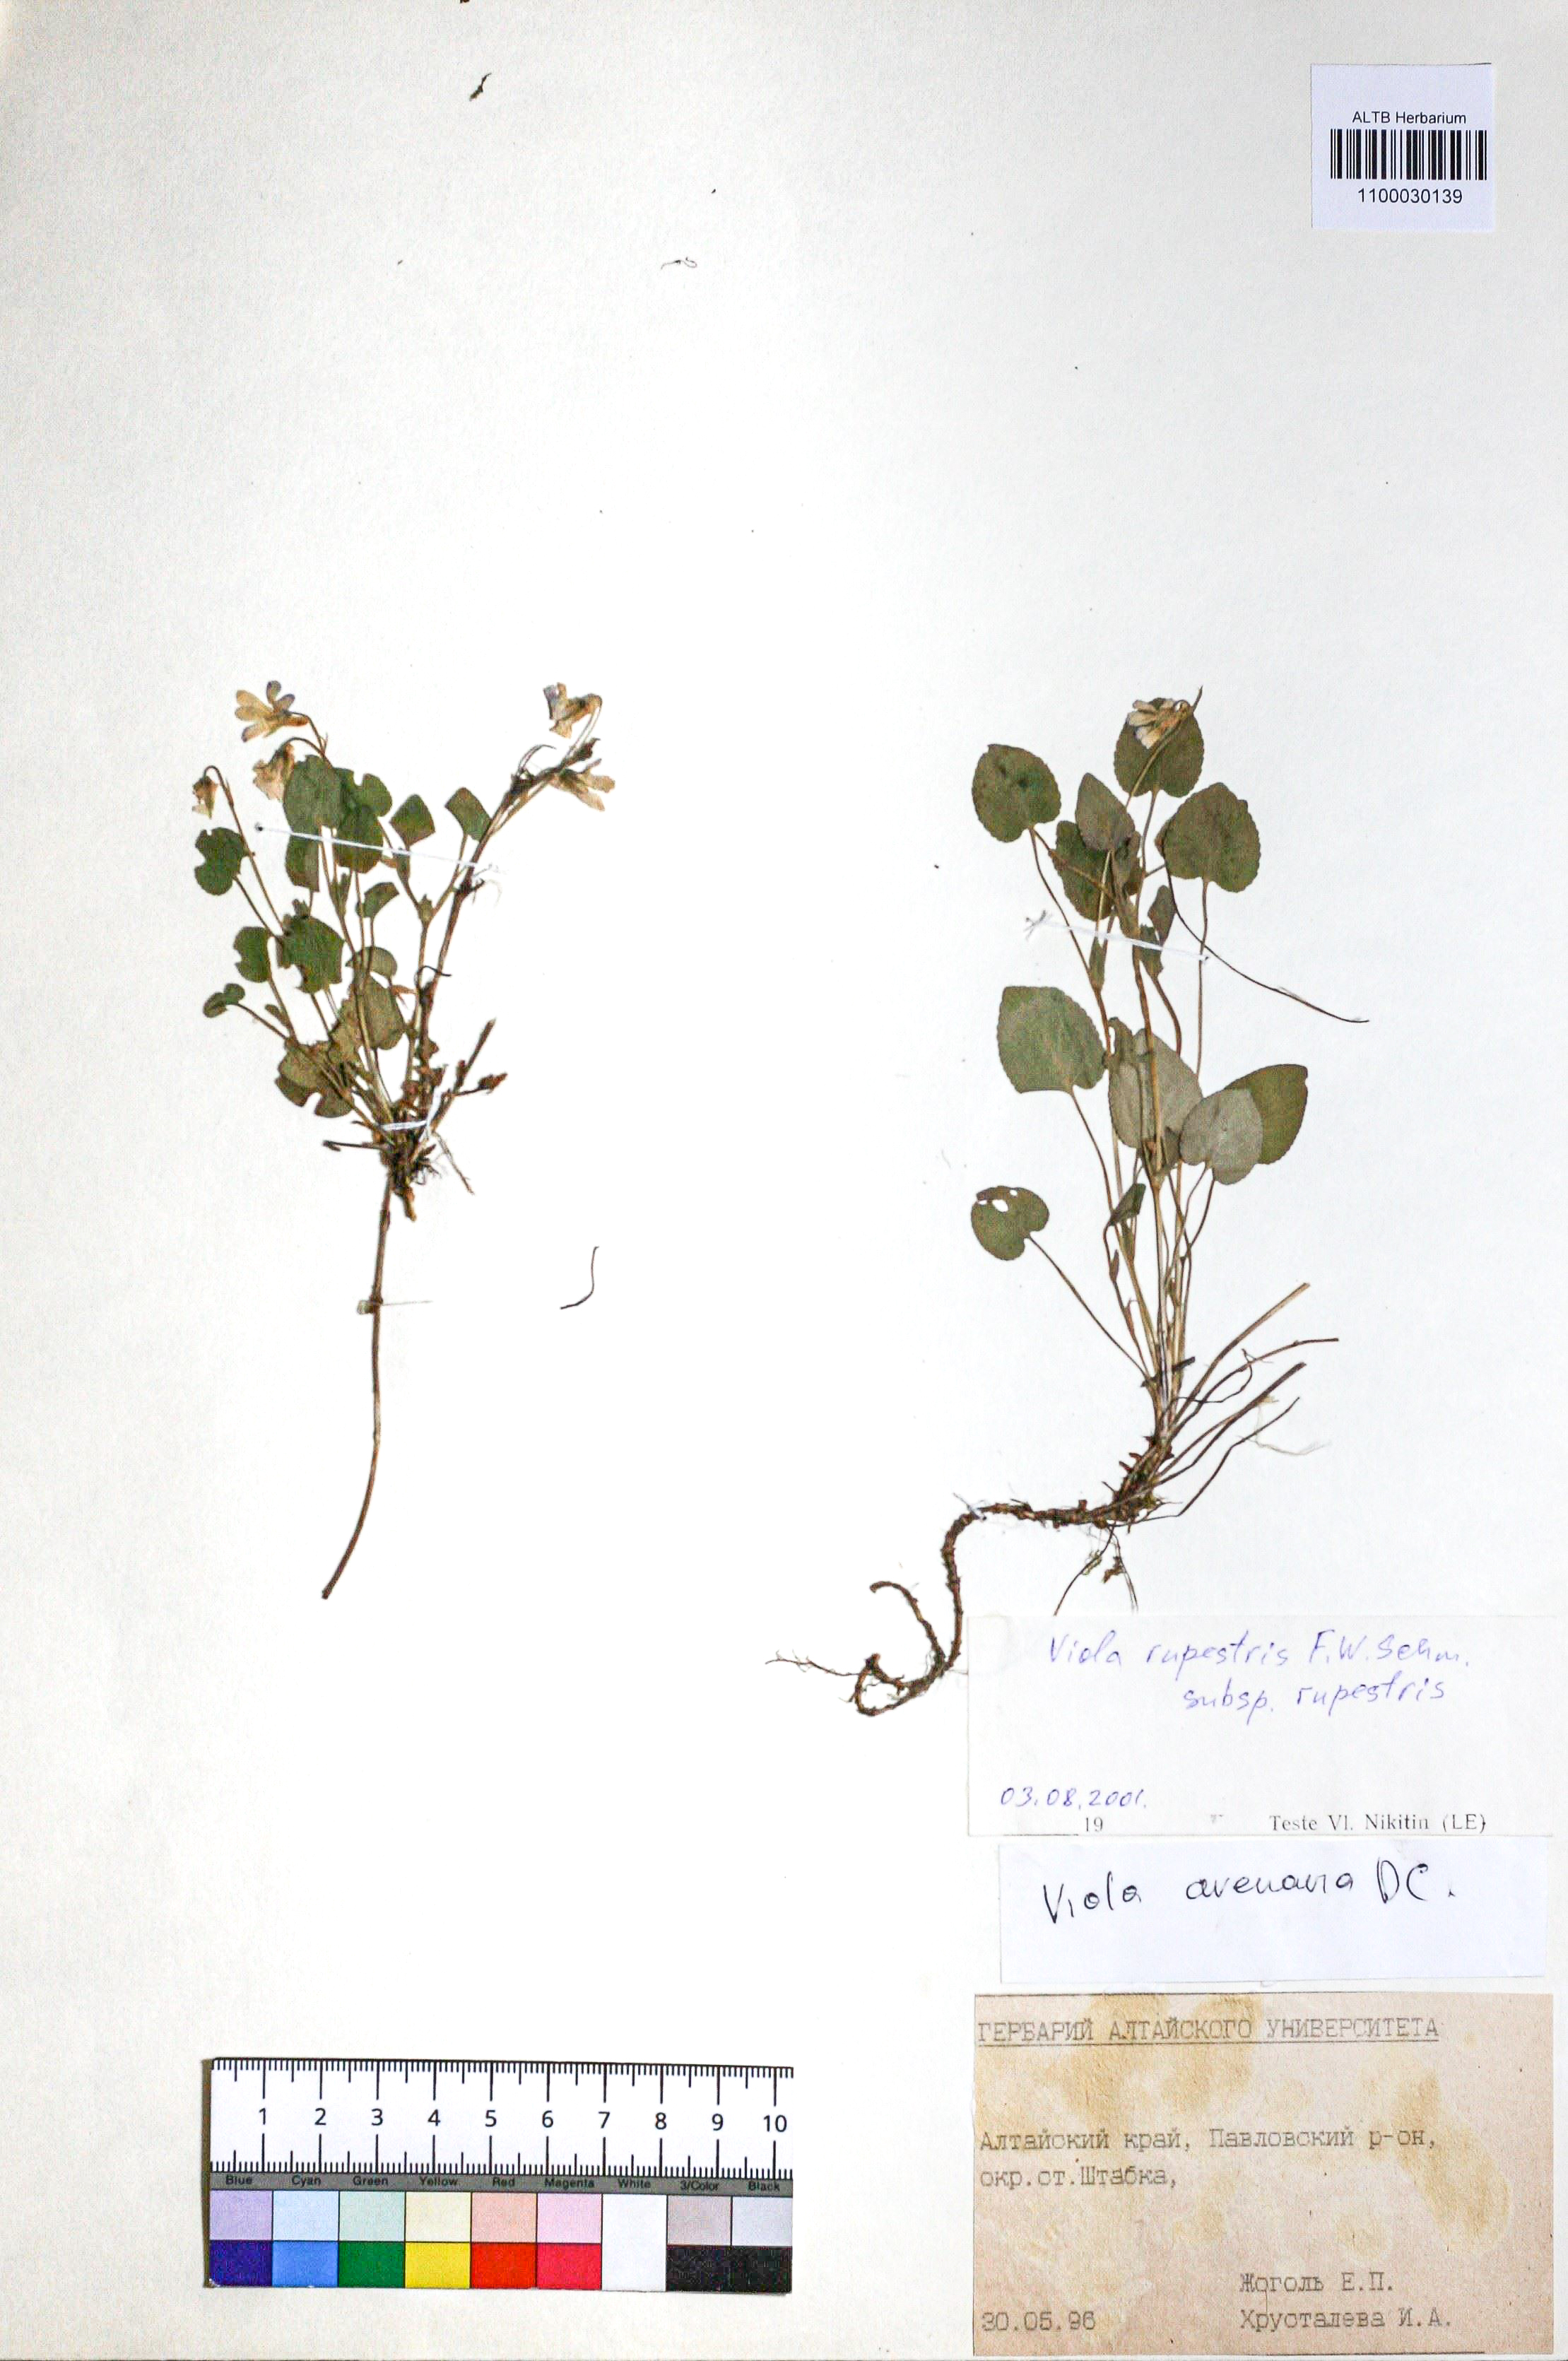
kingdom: Plantae
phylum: Tracheophyta
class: Magnoliopsida
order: Malpighiales
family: Violaceae
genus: Viola
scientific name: Viola rupestris
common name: Teesdale violet
